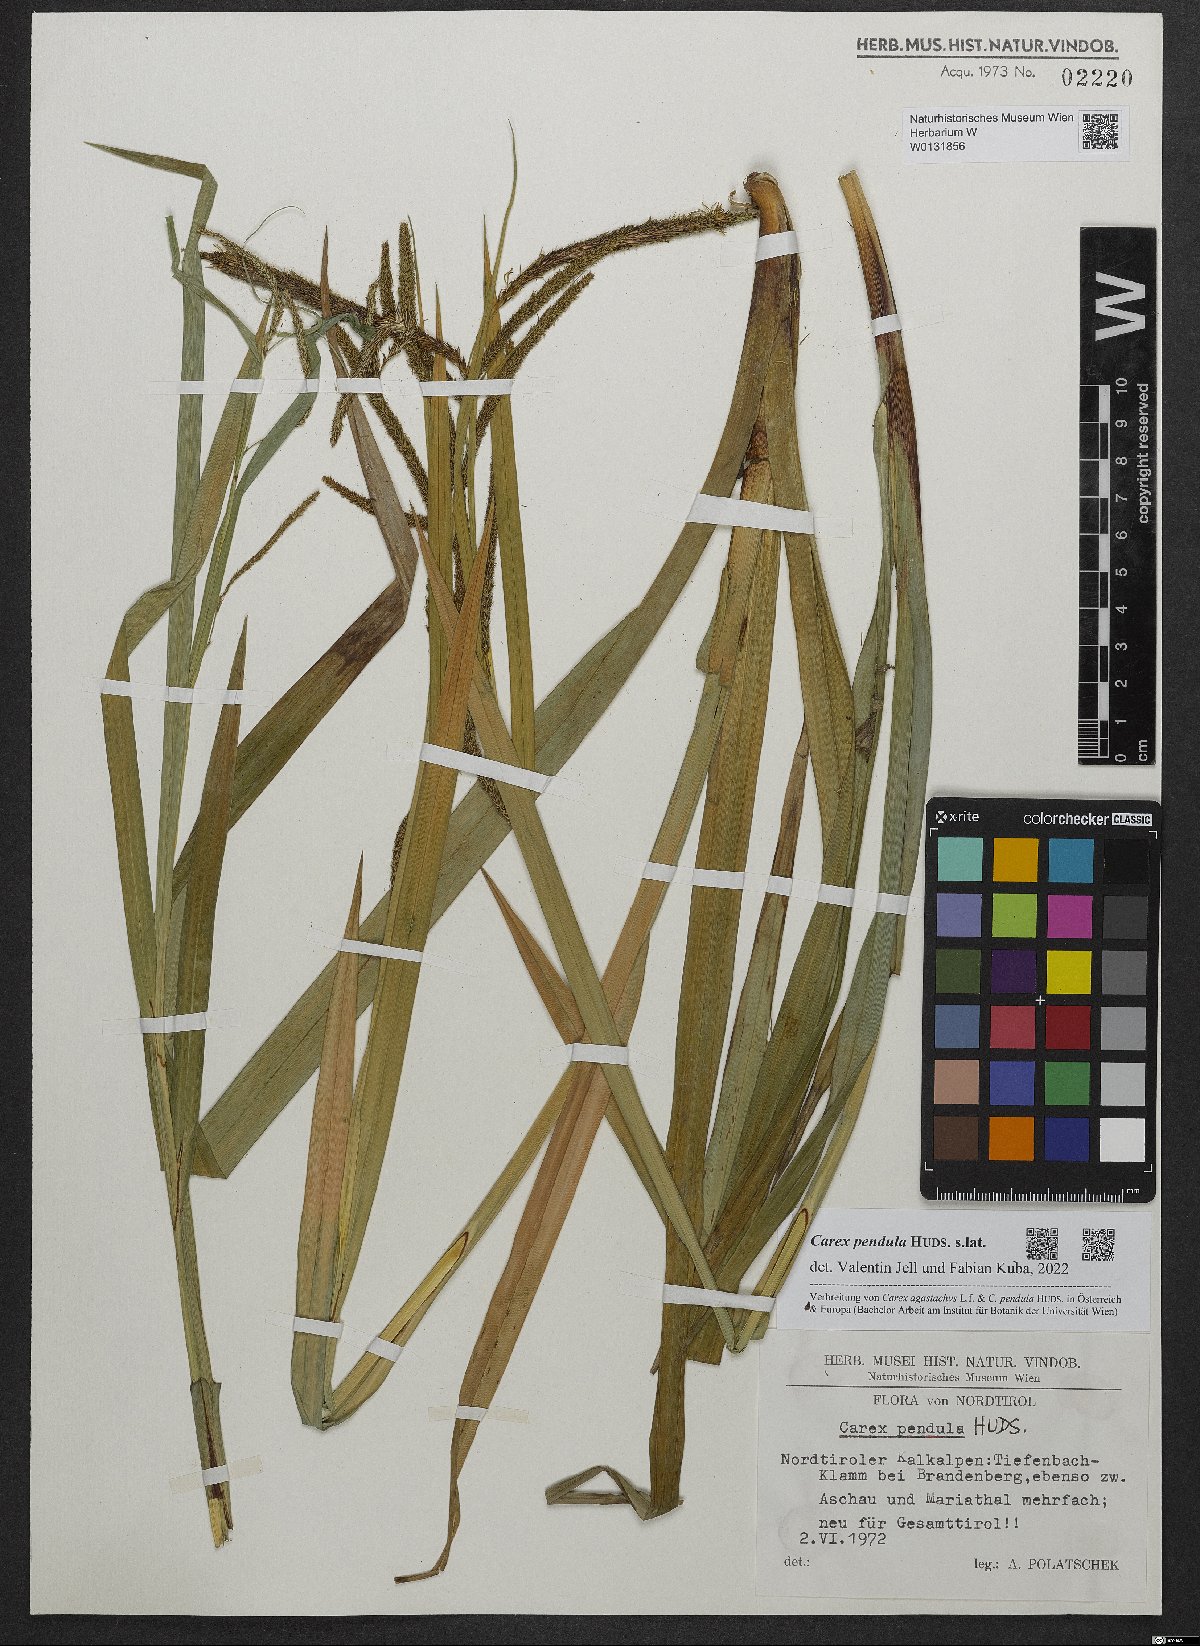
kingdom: Plantae
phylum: Tracheophyta
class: Liliopsida
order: Poales
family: Cyperaceae
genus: Carex
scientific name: Carex pendula
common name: Pendulous sedge
